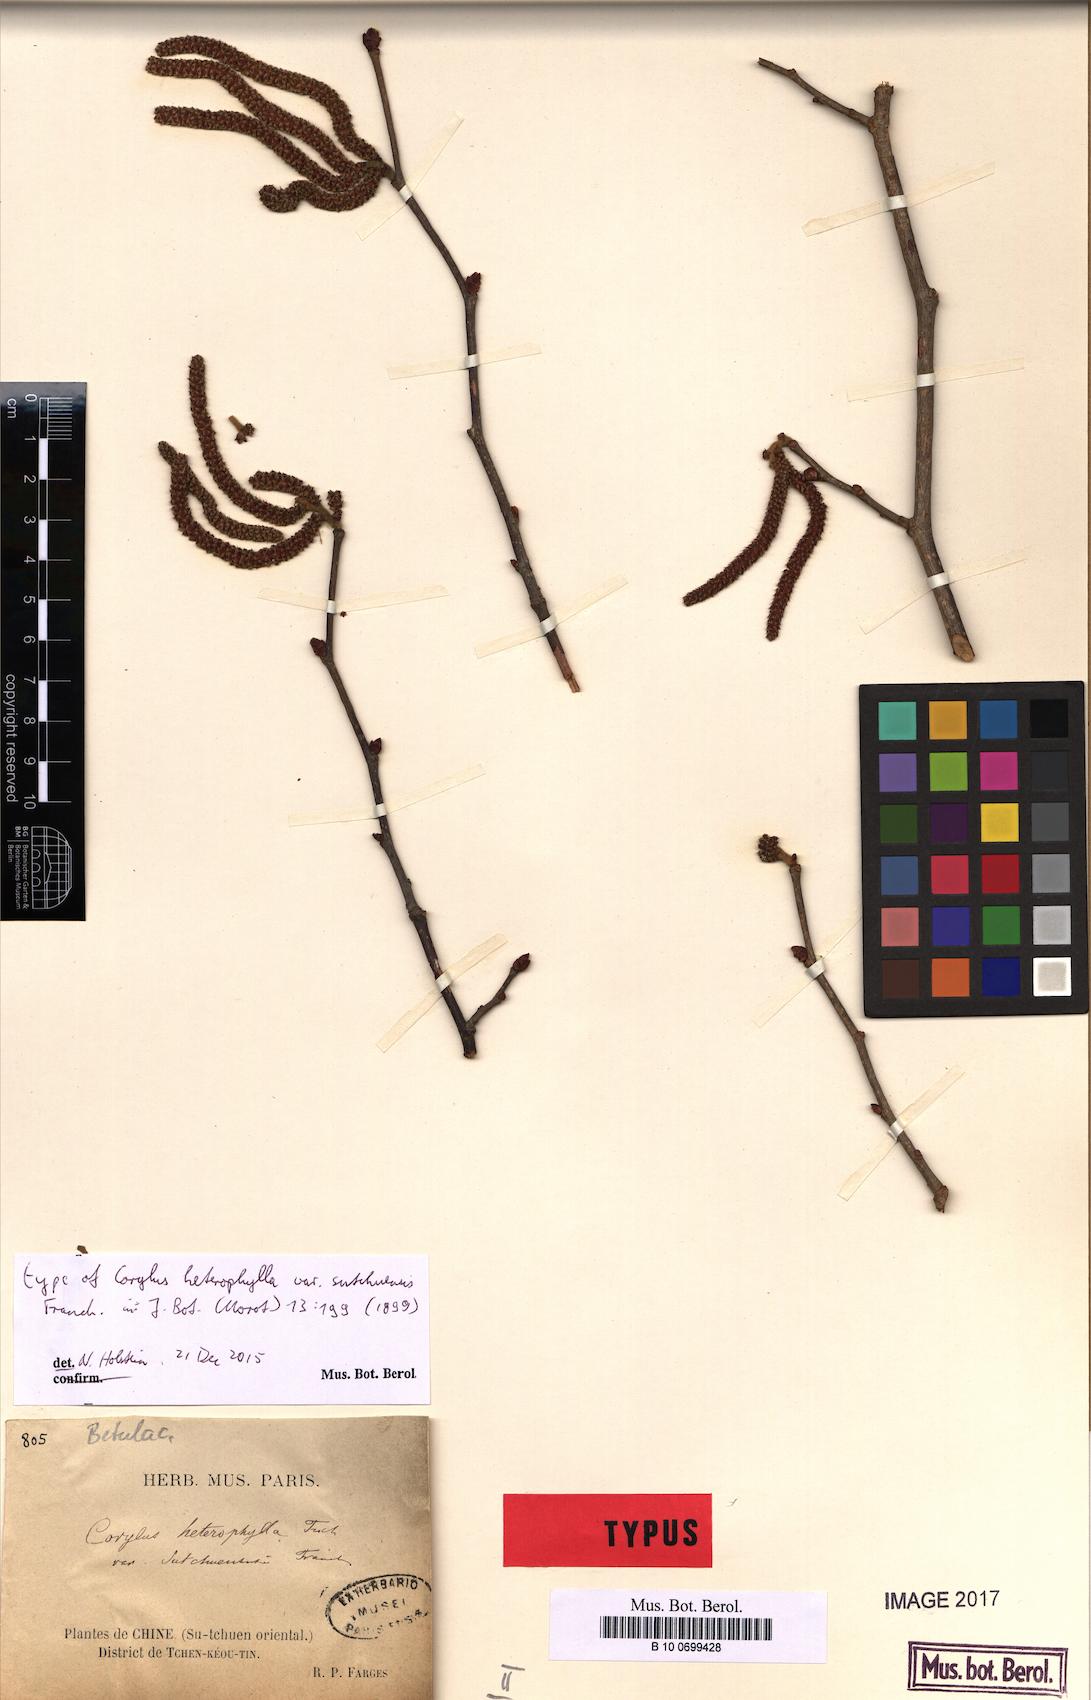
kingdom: Plantae
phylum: Tracheophyta
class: Magnoliopsida
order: Fagales
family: Betulaceae
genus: Corylus
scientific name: Corylus heterophylla
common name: Siberian hazelnut
